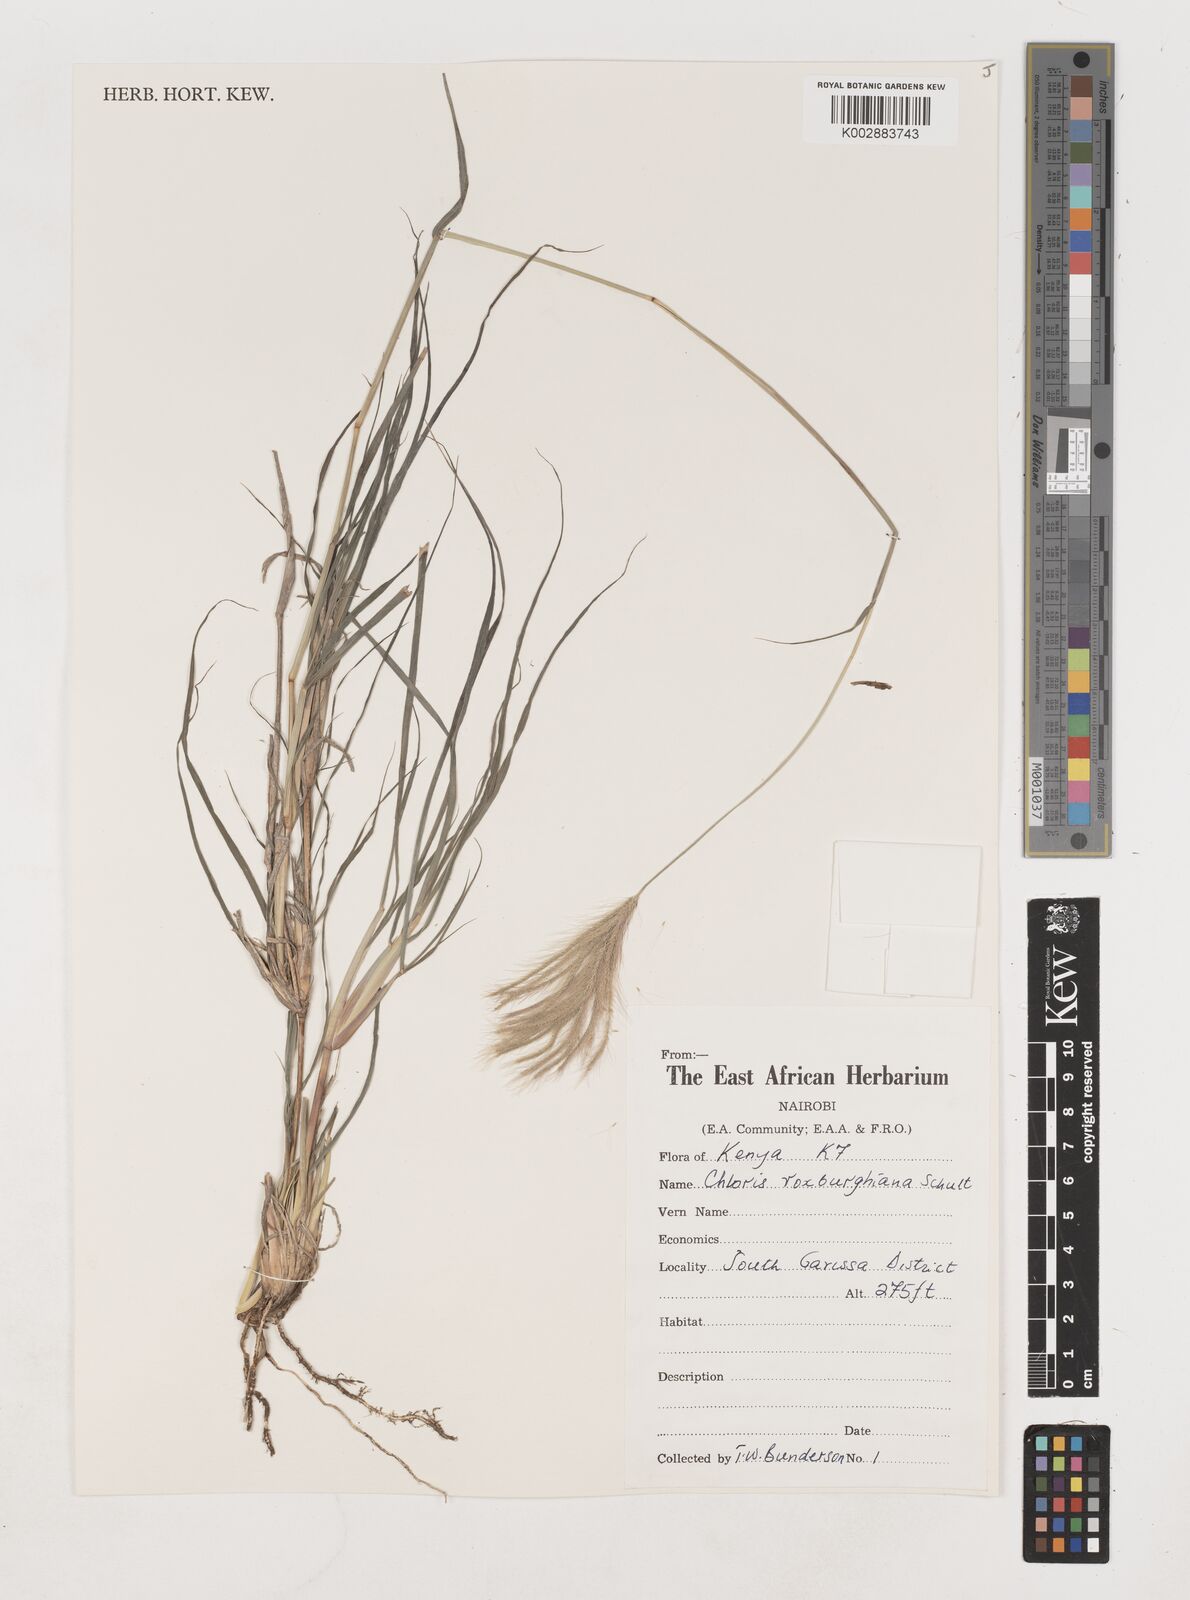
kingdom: Plantae
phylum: Tracheophyta
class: Liliopsida
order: Poales
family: Poaceae
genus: Tetrapogon
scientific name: Tetrapogon roxburghiana
